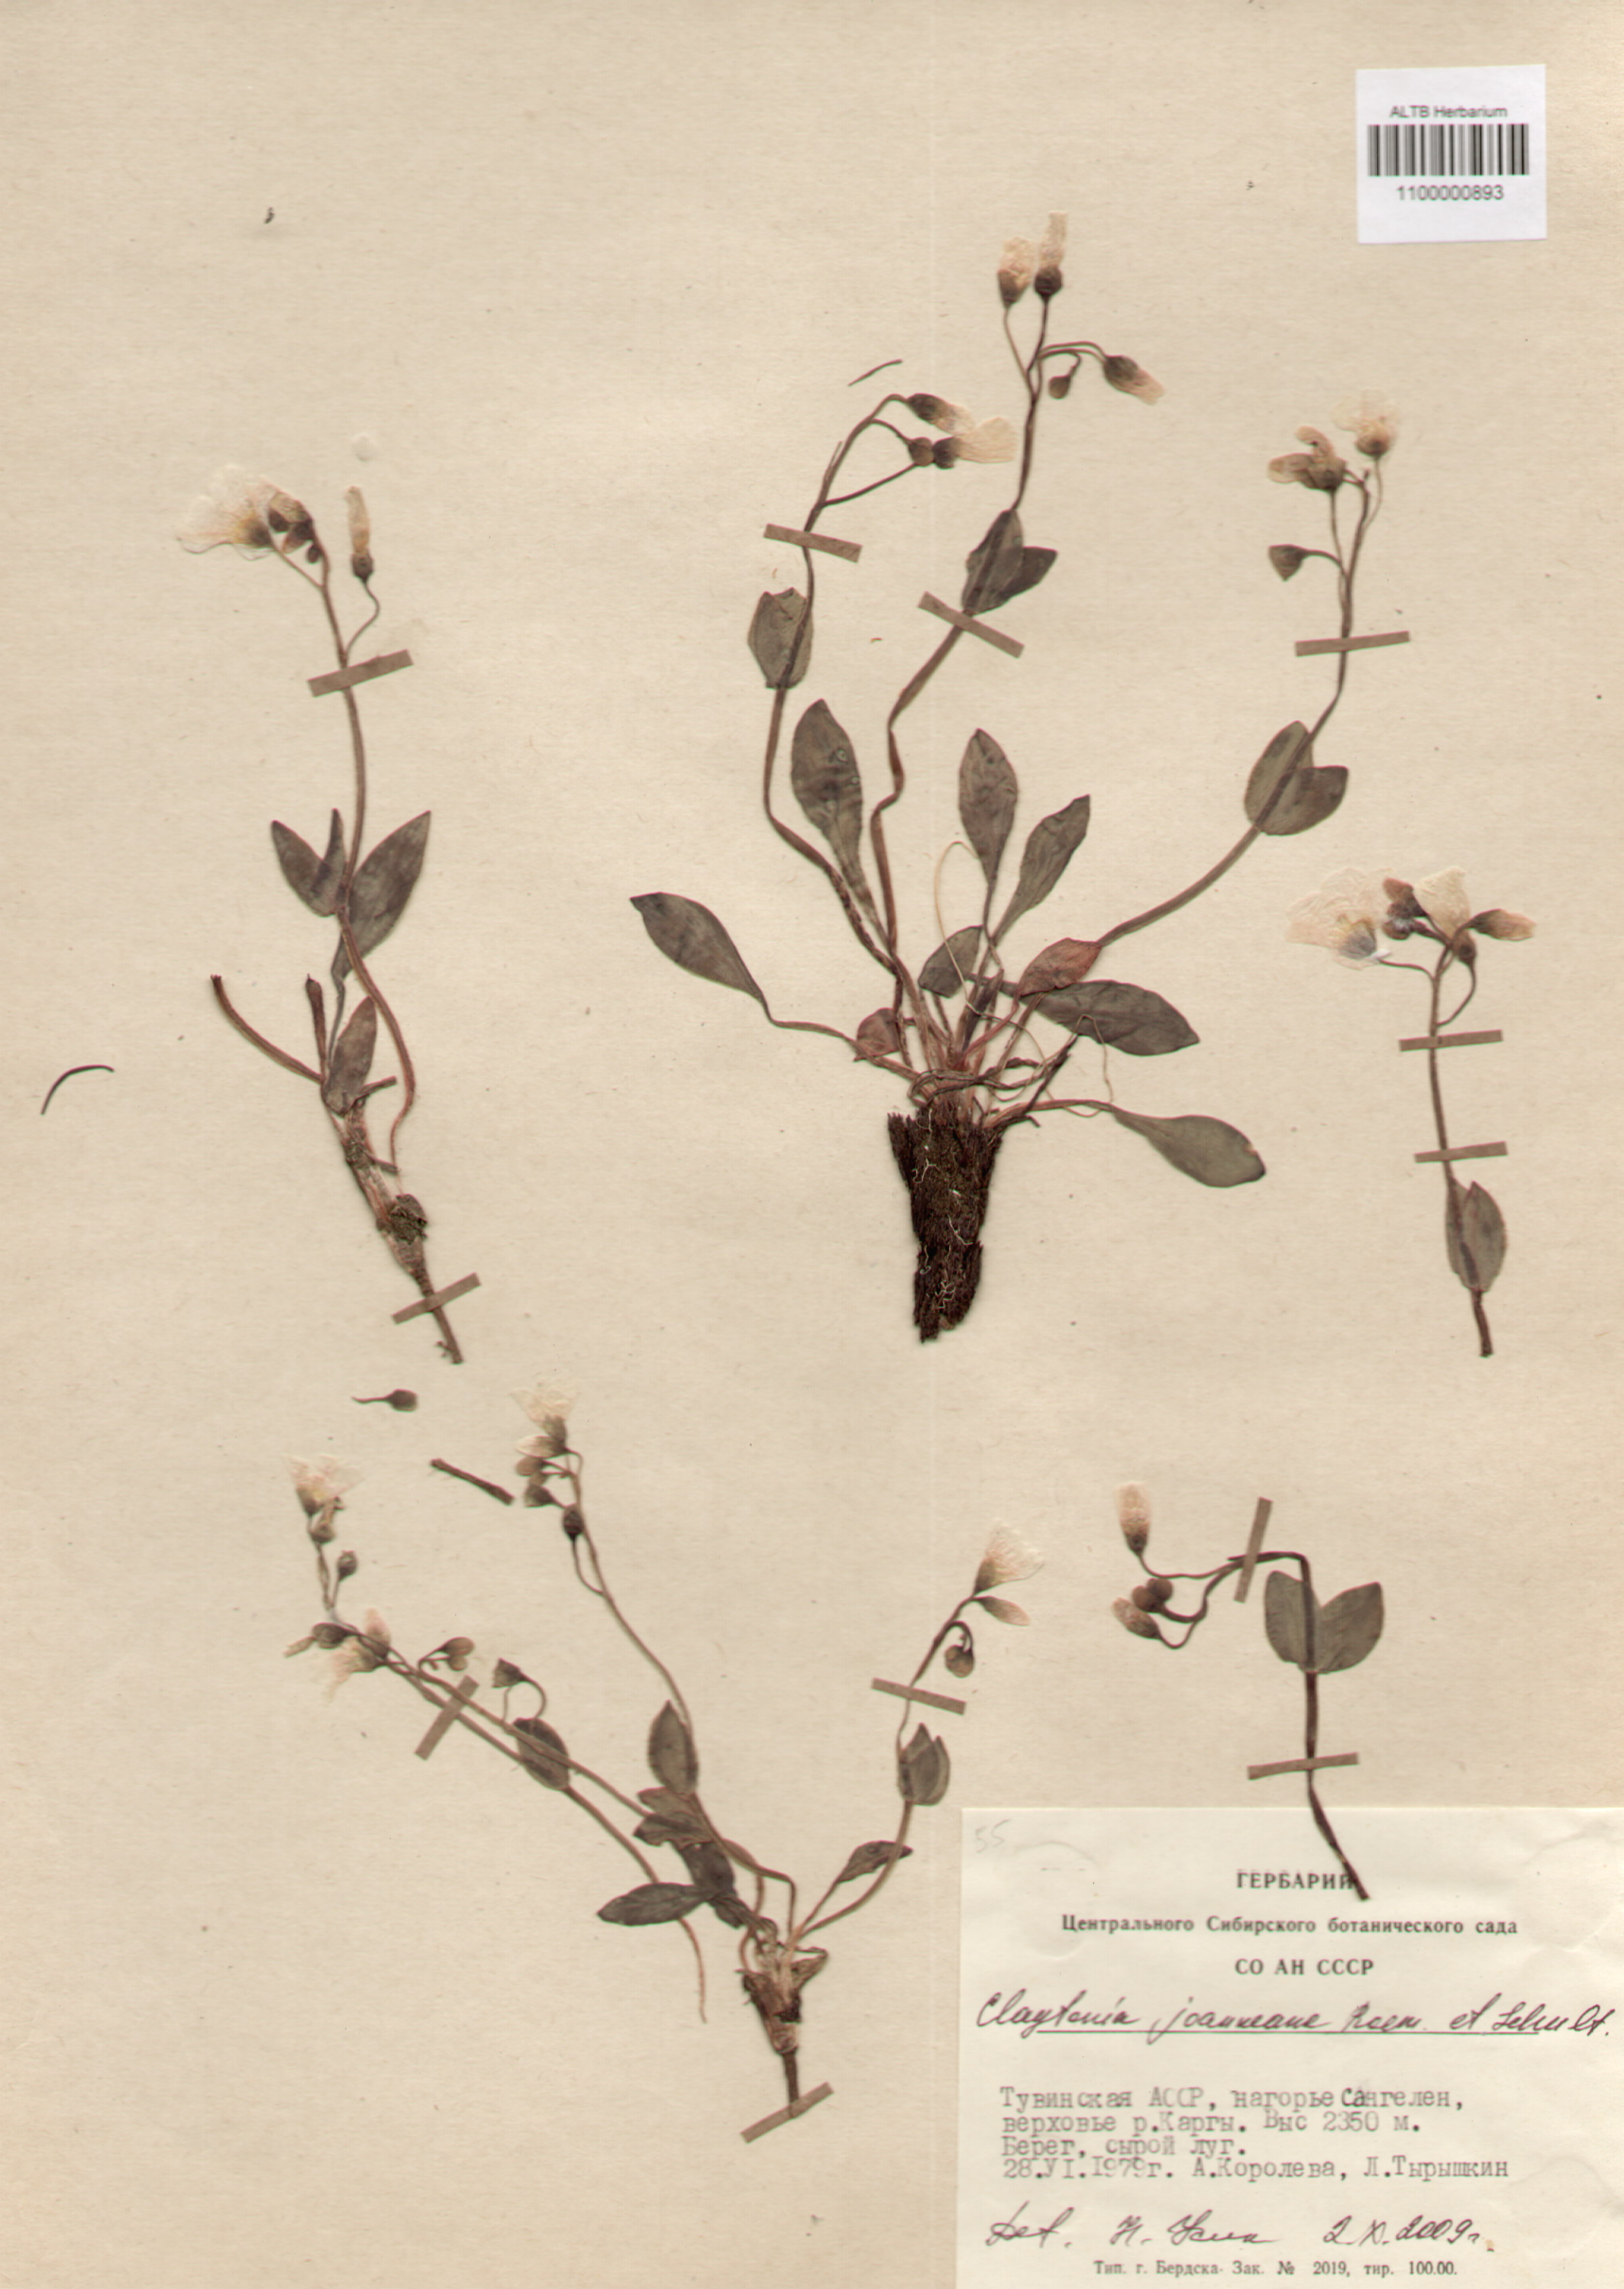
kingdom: Plantae
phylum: Tracheophyta
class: Magnoliopsida
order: Caryophyllales
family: Montiaceae
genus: Claytonia
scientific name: Claytonia joanneana
